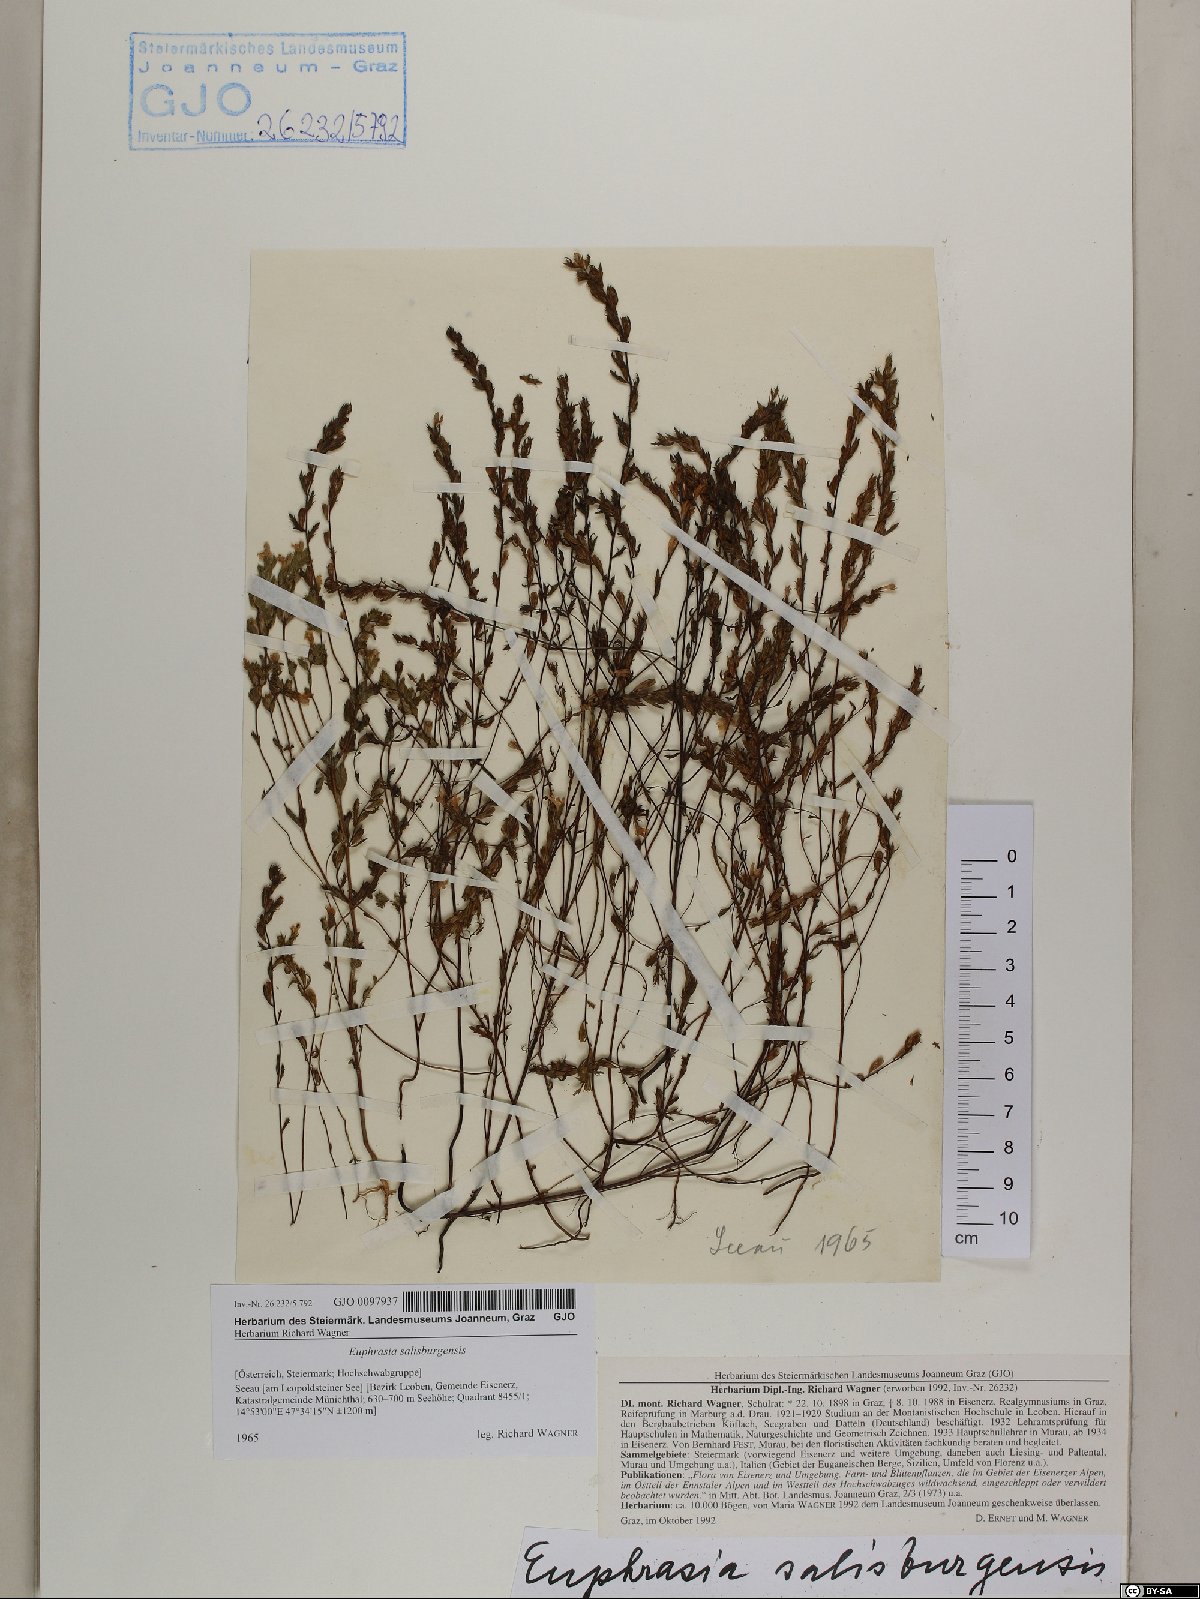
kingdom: Plantae
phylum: Tracheophyta
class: Magnoliopsida
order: Lamiales
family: Orobanchaceae
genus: Euphrasia
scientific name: Euphrasia salisburgensis
